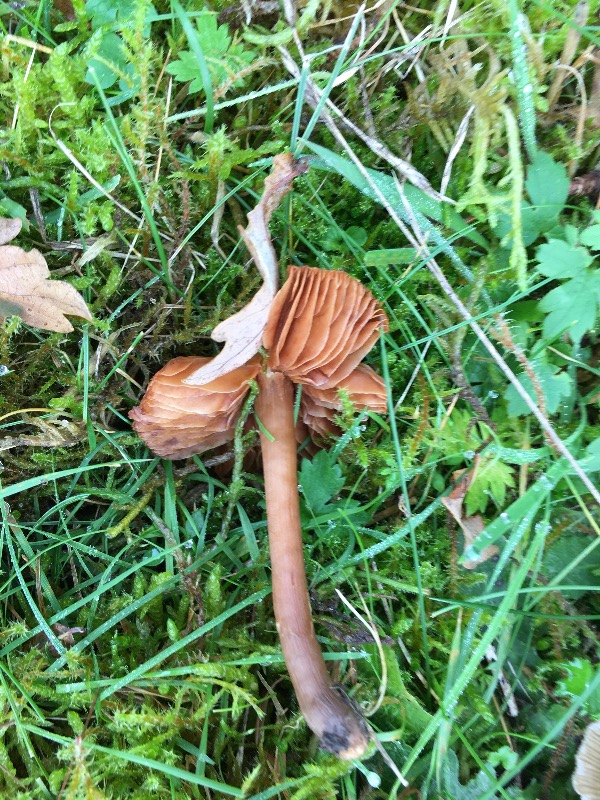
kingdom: Fungi
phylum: Basidiomycota
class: Agaricomycetes
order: Agaricales
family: Entolomataceae
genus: Entoloma
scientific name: Entoloma
